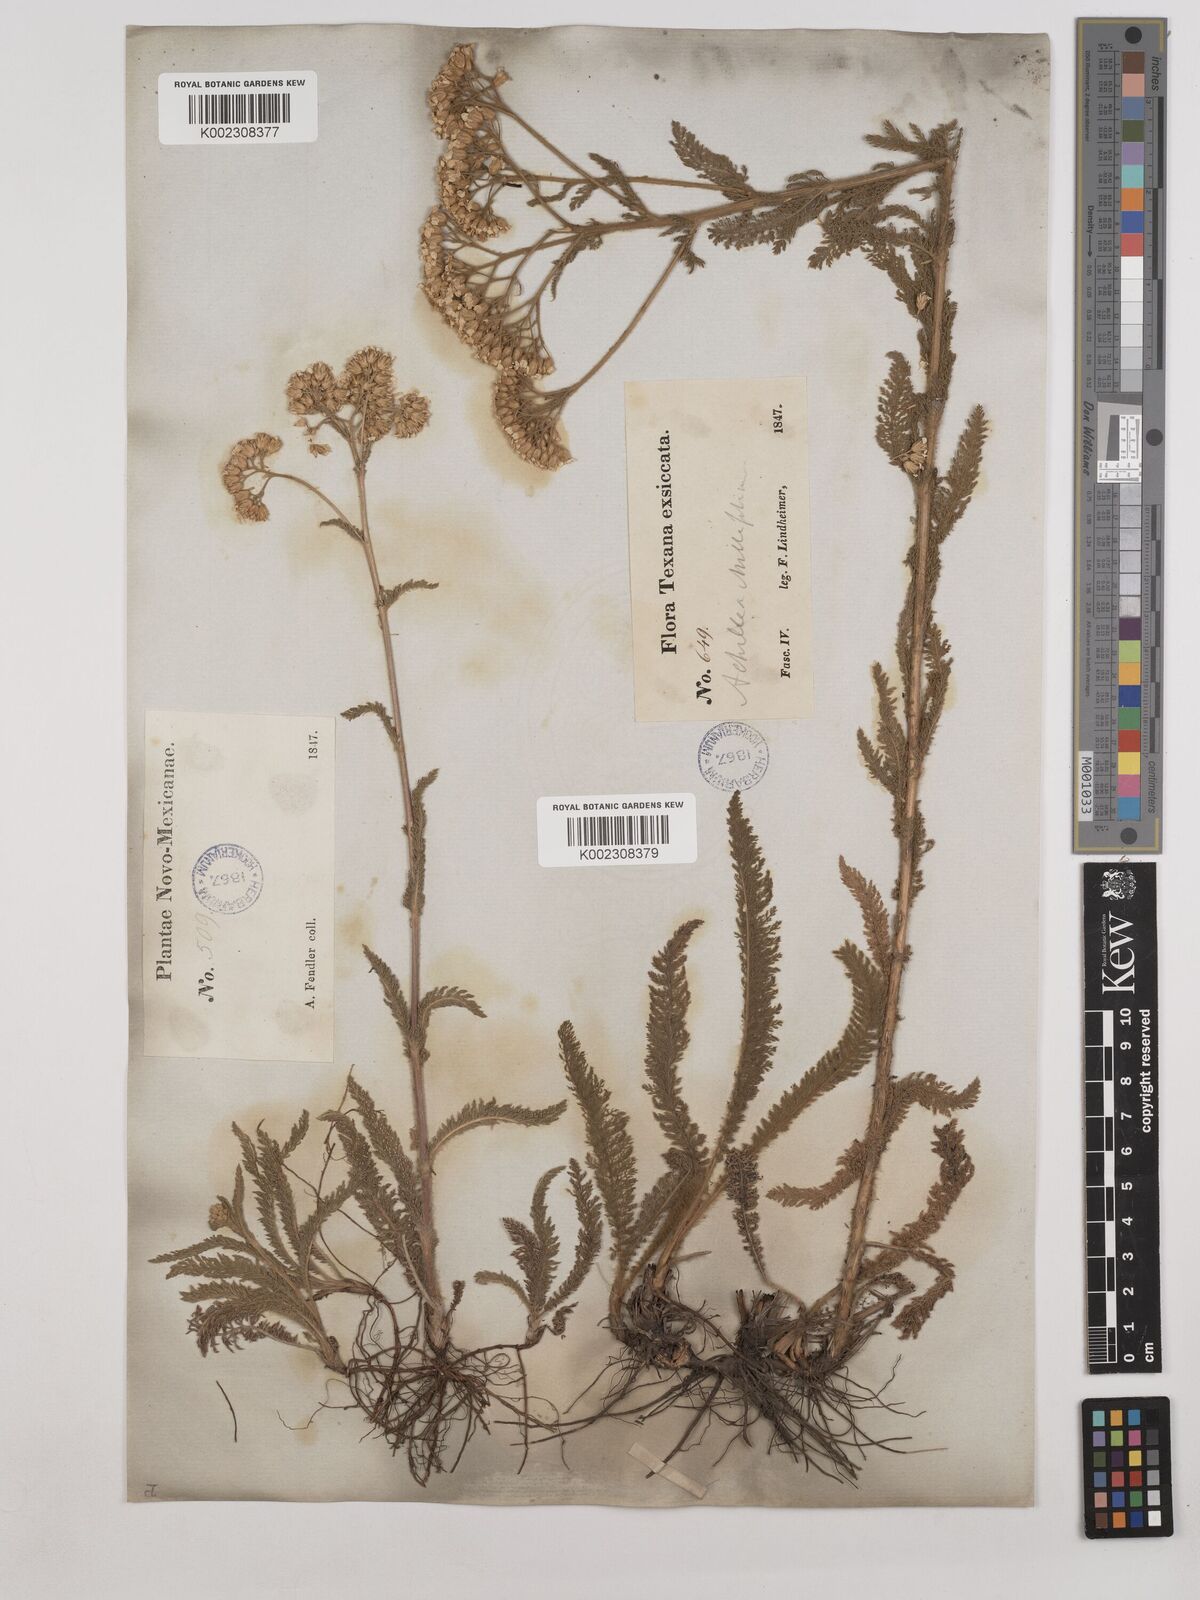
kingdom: Plantae
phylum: Tracheophyta
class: Magnoliopsida
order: Asterales
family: Asteraceae
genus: Achillea
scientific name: Achillea millefolium
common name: Yarrow
